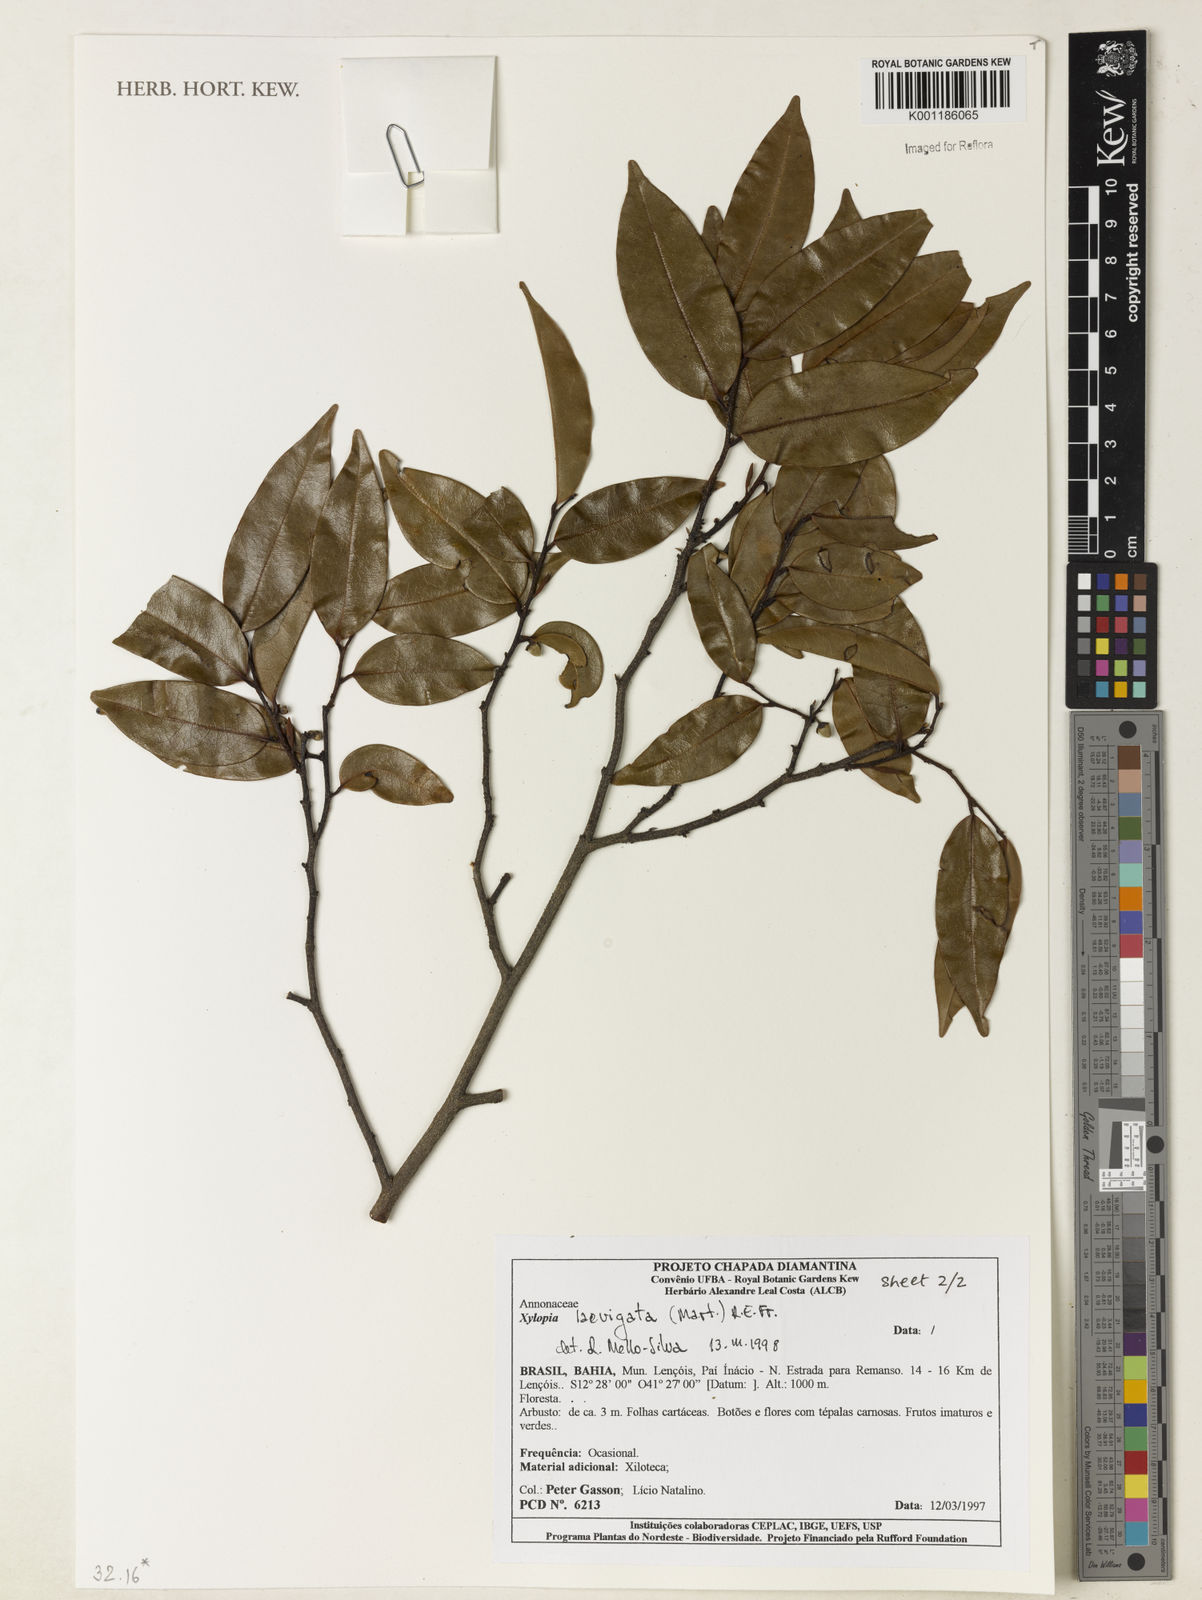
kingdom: Plantae
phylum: Tracheophyta
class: Magnoliopsida
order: Magnoliales
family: Annonaceae
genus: Xylopia
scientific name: Xylopia laevigata
